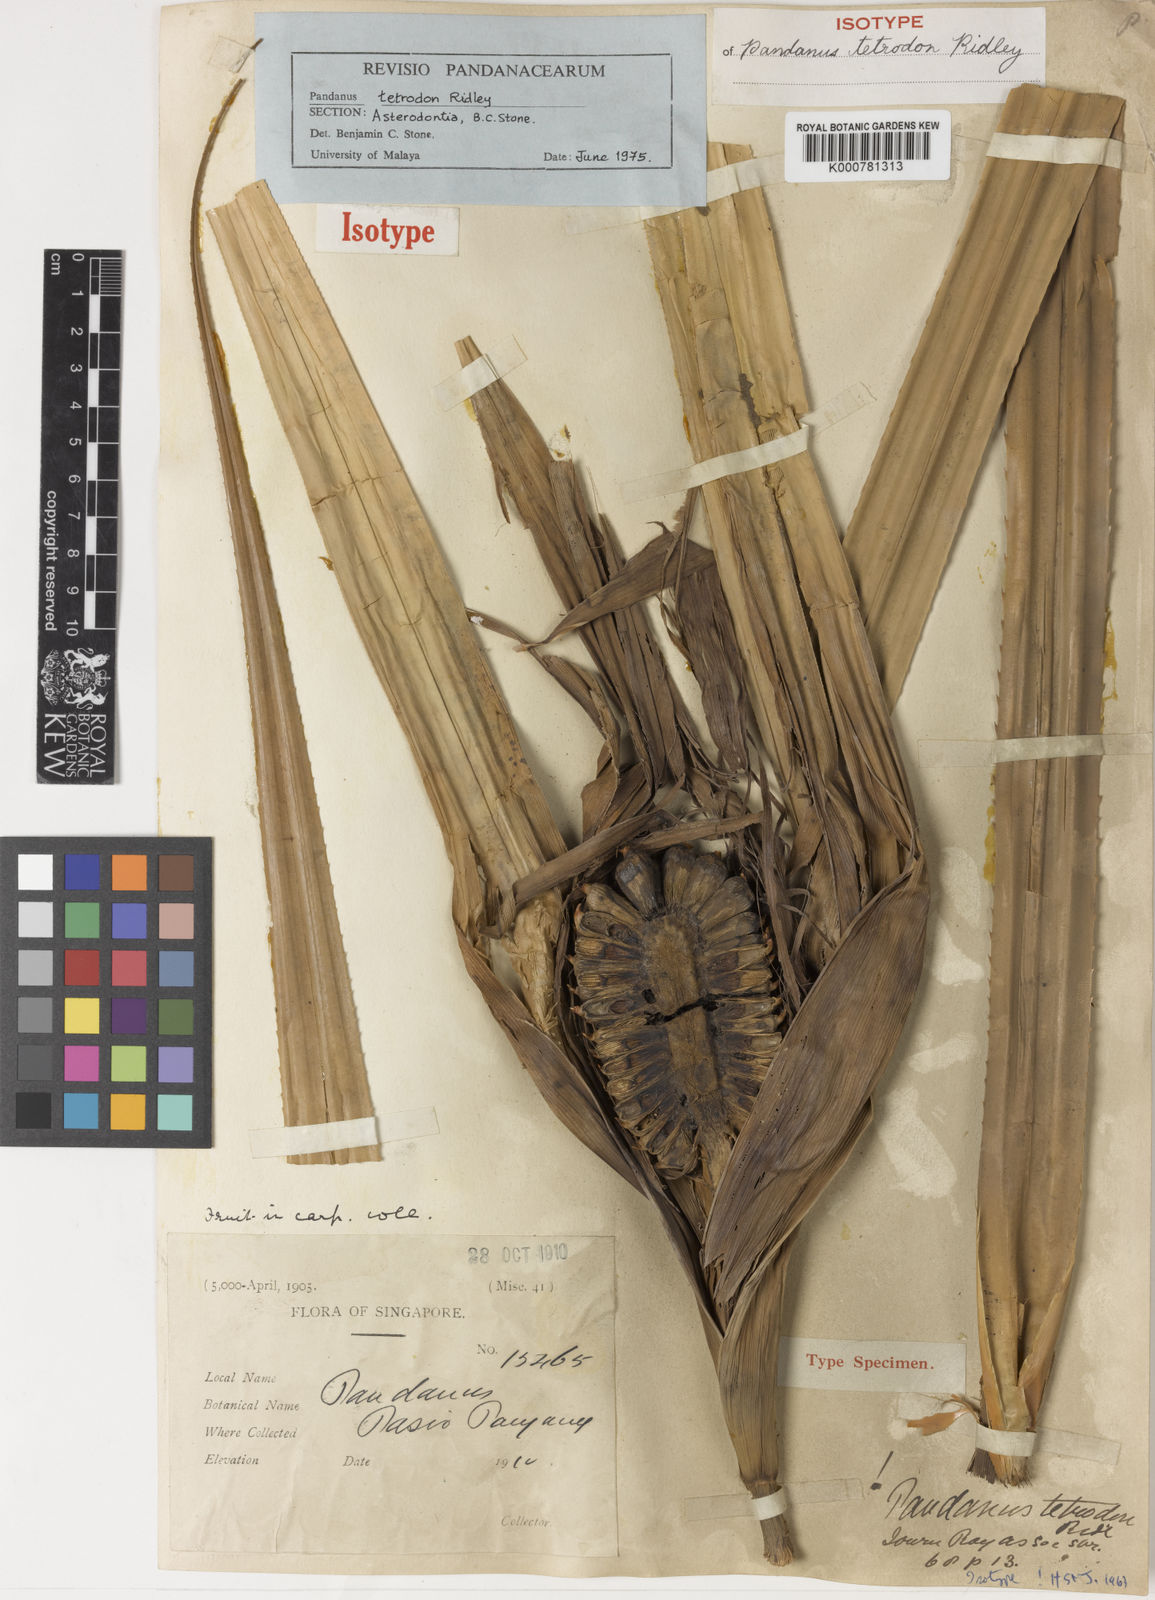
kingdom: Plantae
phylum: Tracheophyta
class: Liliopsida
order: Pandanales
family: Pandanaceae
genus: Pandanus
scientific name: Pandanus singaporensis
